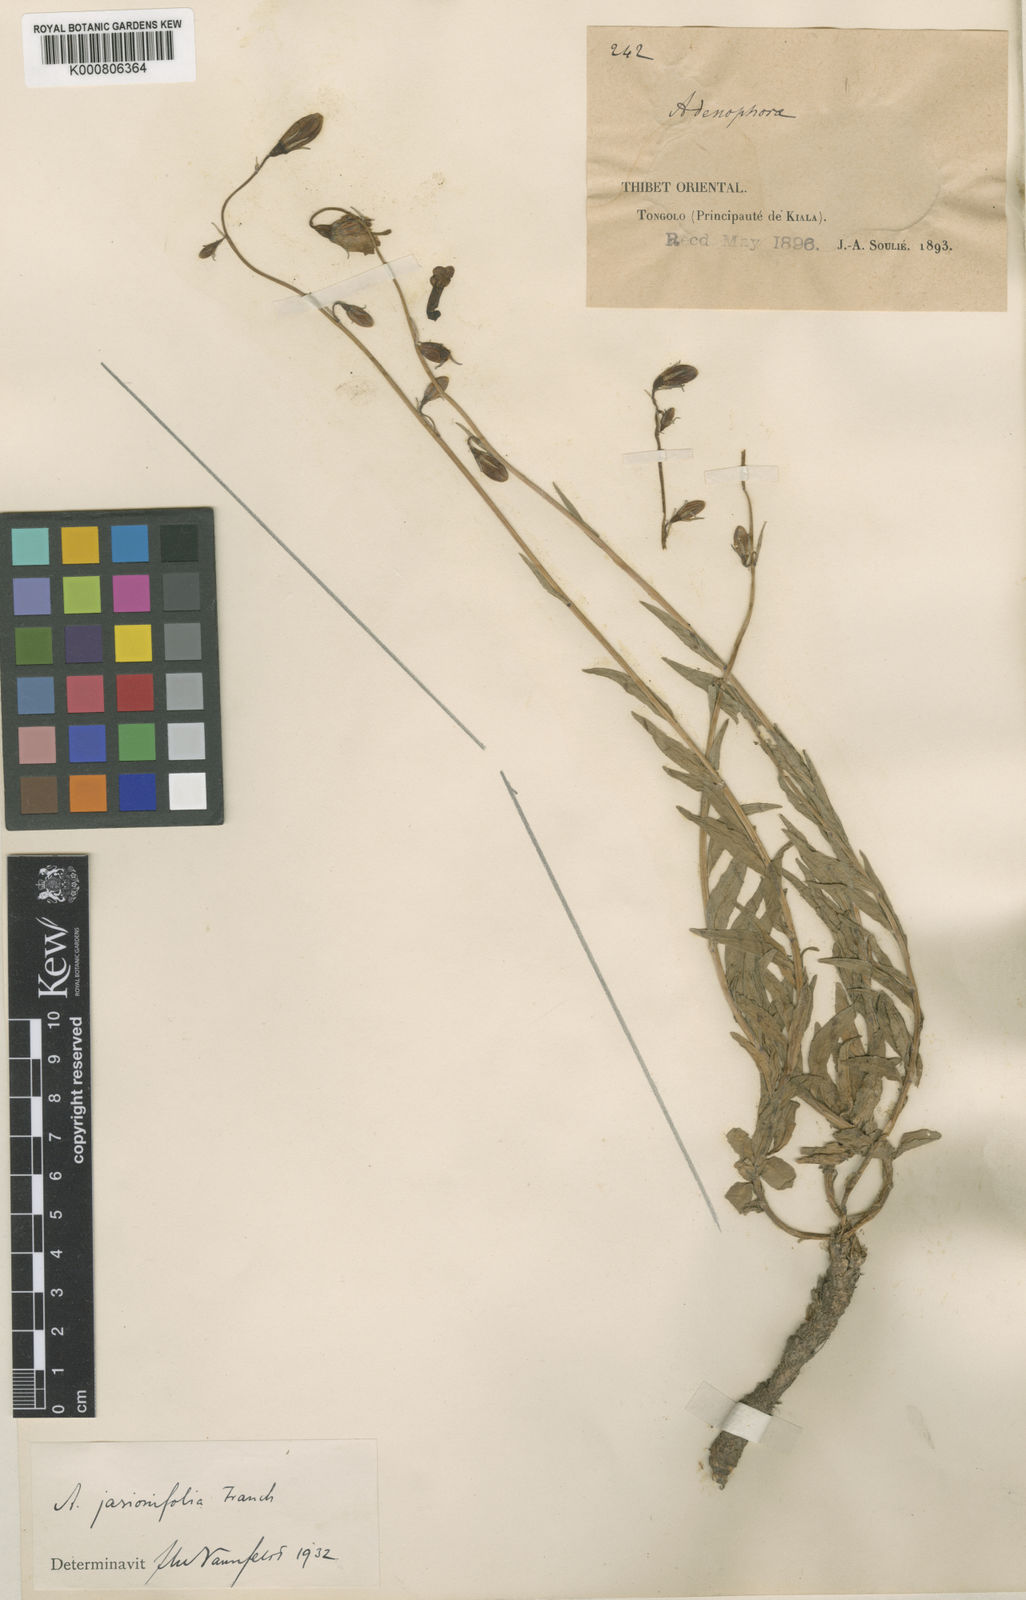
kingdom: Plantae
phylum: Tracheophyta
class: Magnoliopsida
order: Asterales
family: Campanulaceae
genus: Adenophora
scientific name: Adenophora jasionifolia
